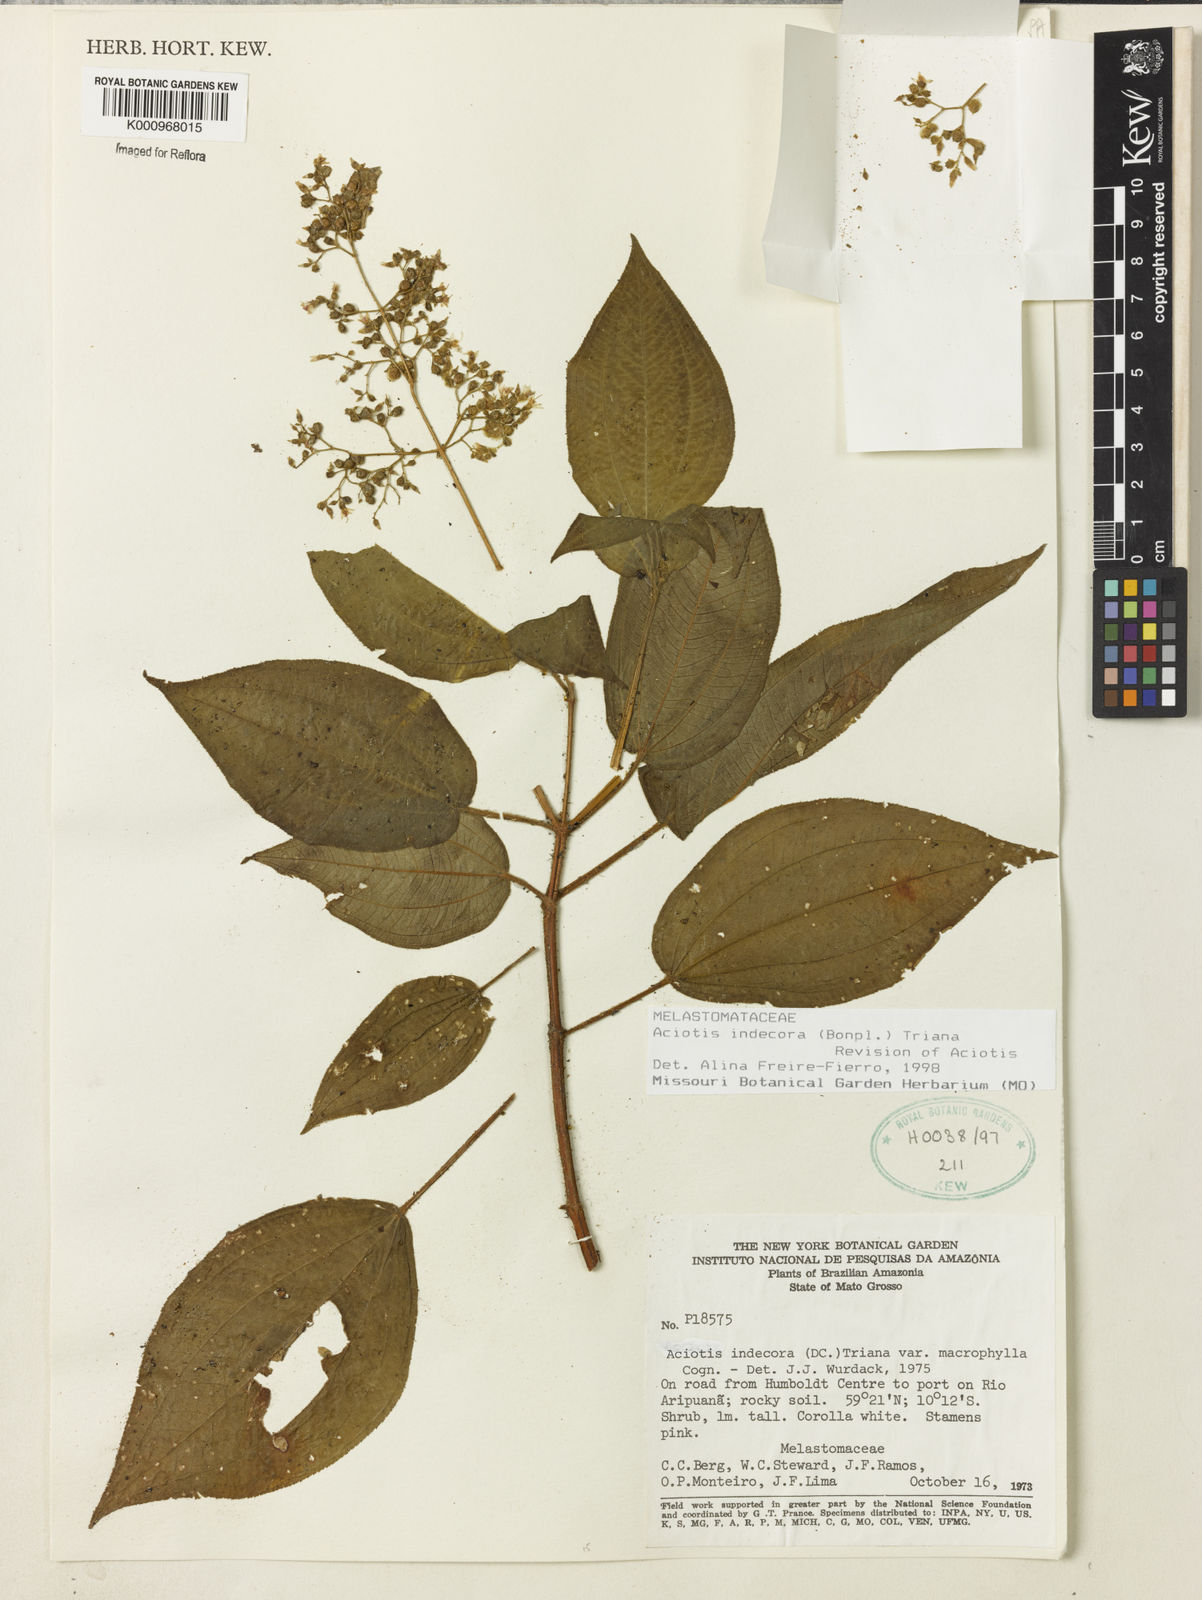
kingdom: Plantae
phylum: Tracheophyta
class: Magnoliopsida
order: Myrtales
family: Melastomataceae
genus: Aciotis
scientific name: Aciotis indecora
